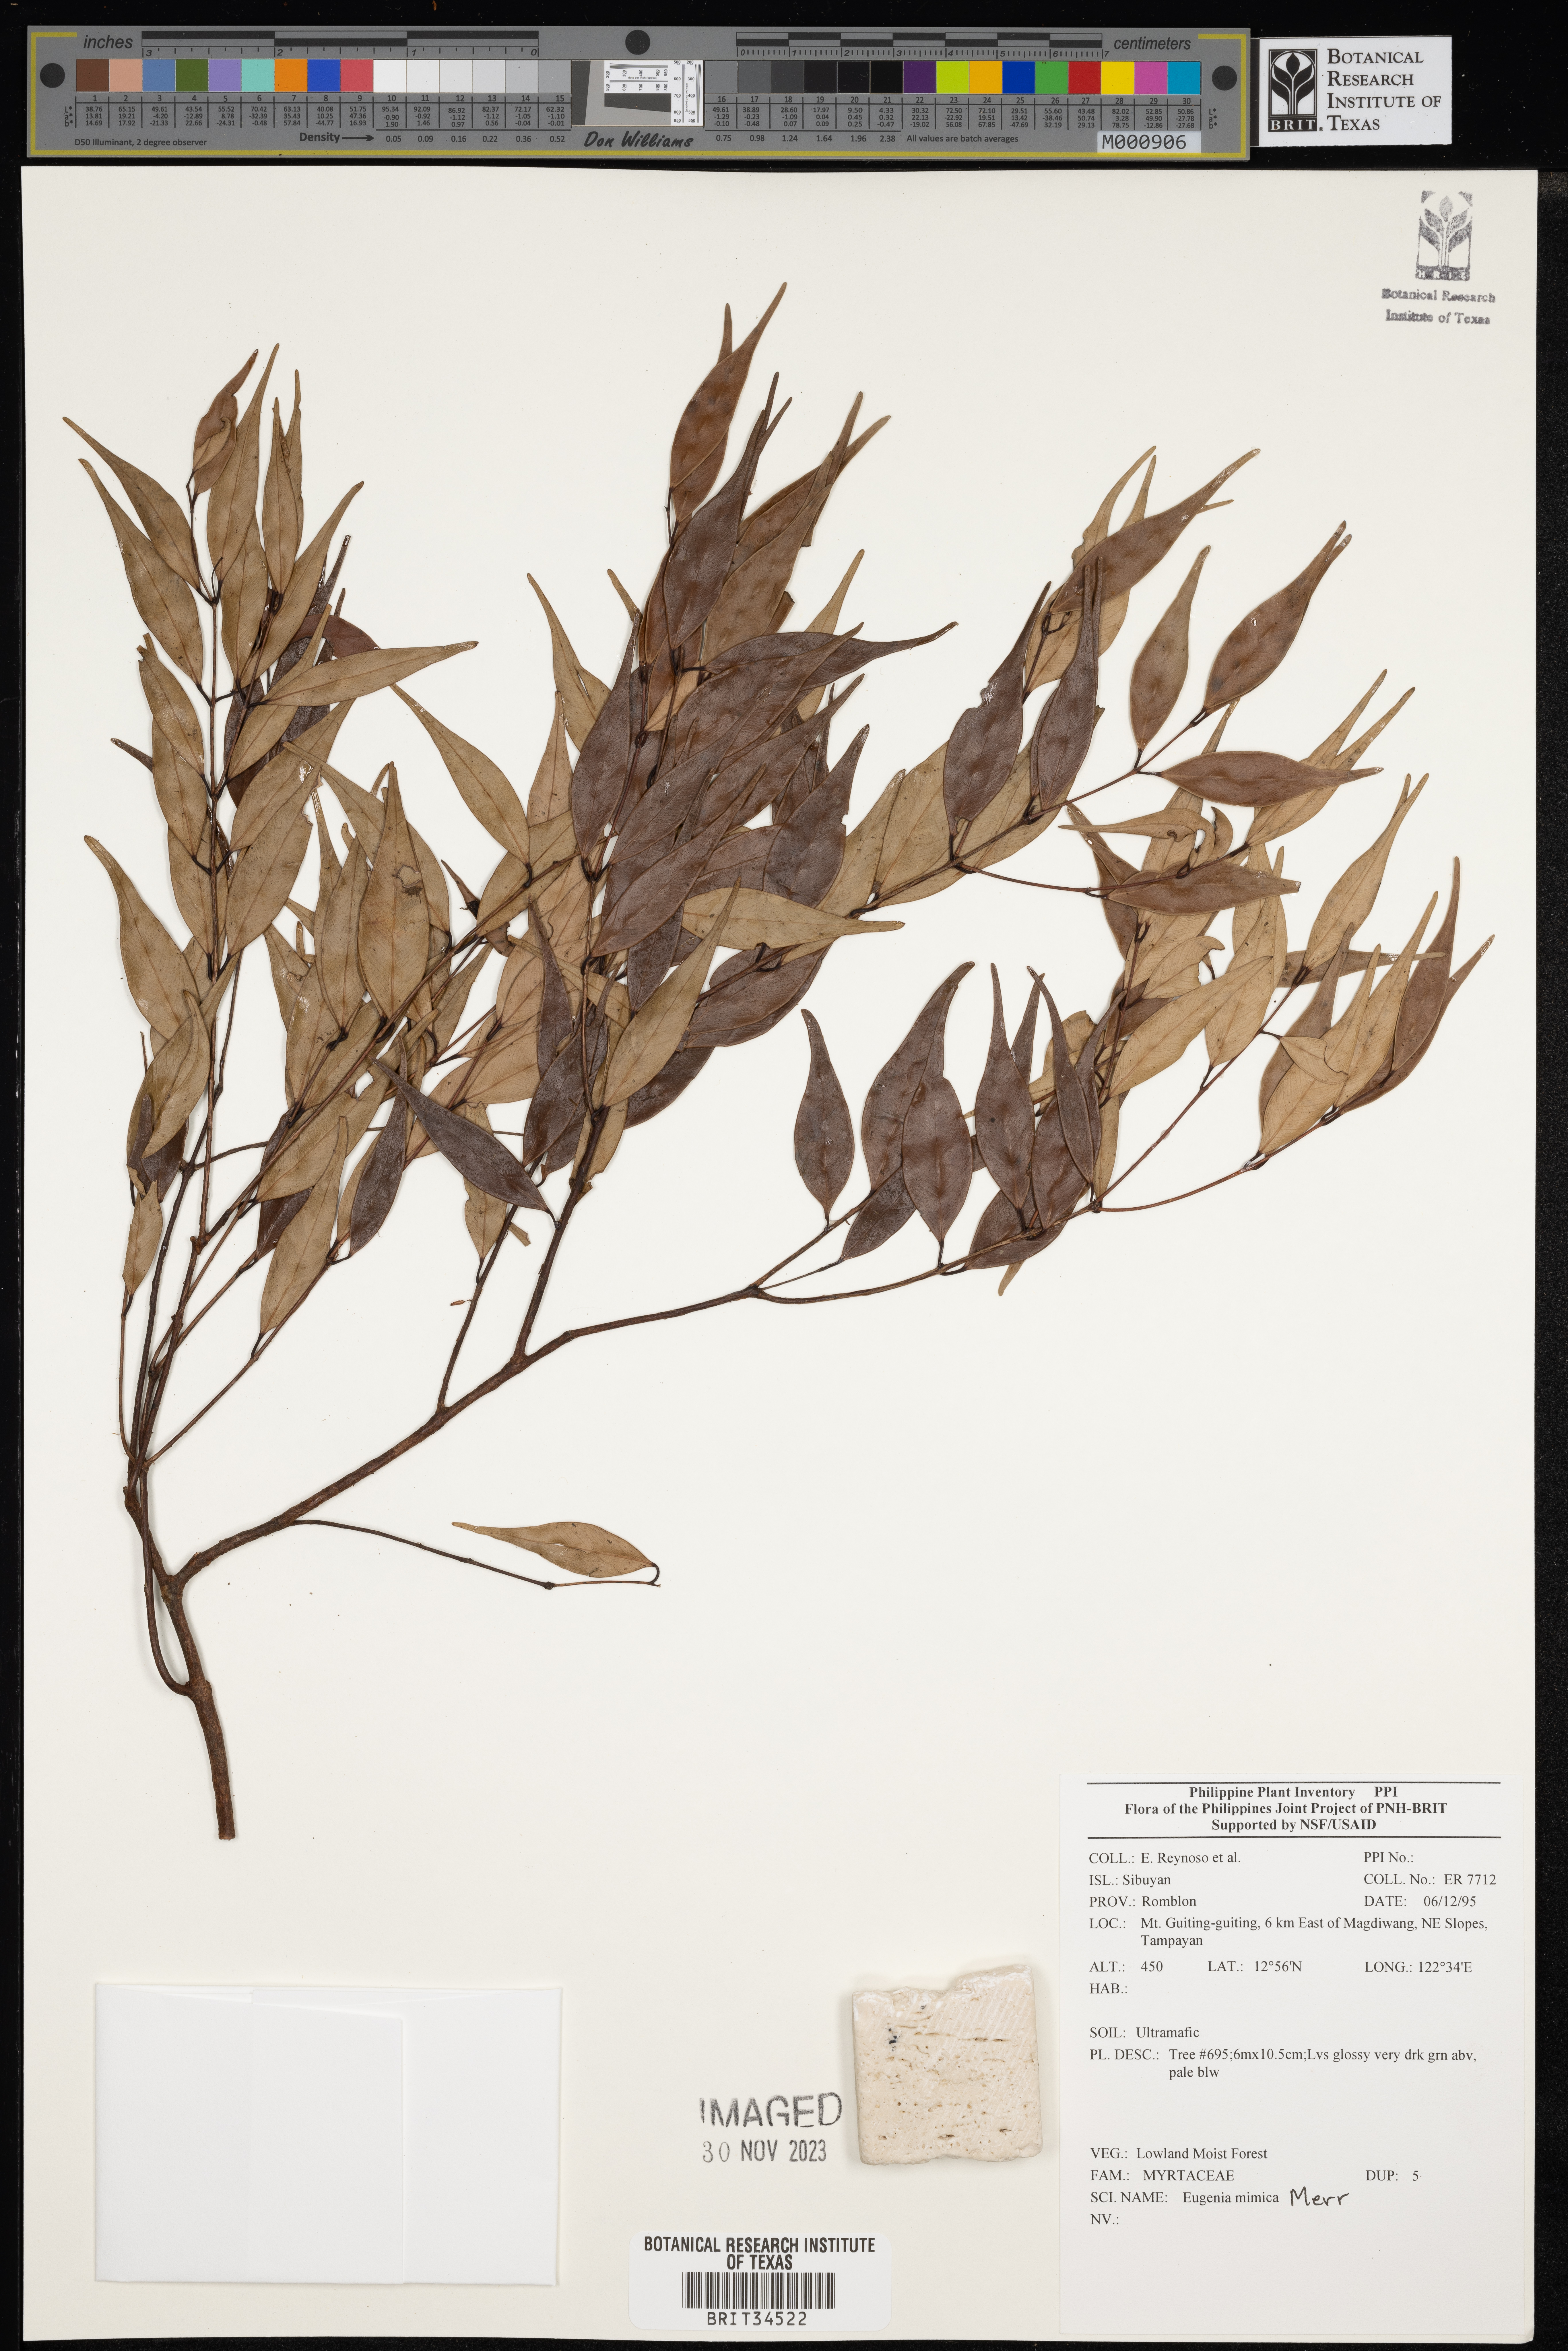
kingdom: Plantae
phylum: Tracheophyta
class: Magnoliopsida
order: Myrtales
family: Myrtaceae
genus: Eugenia
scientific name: Eugenia
